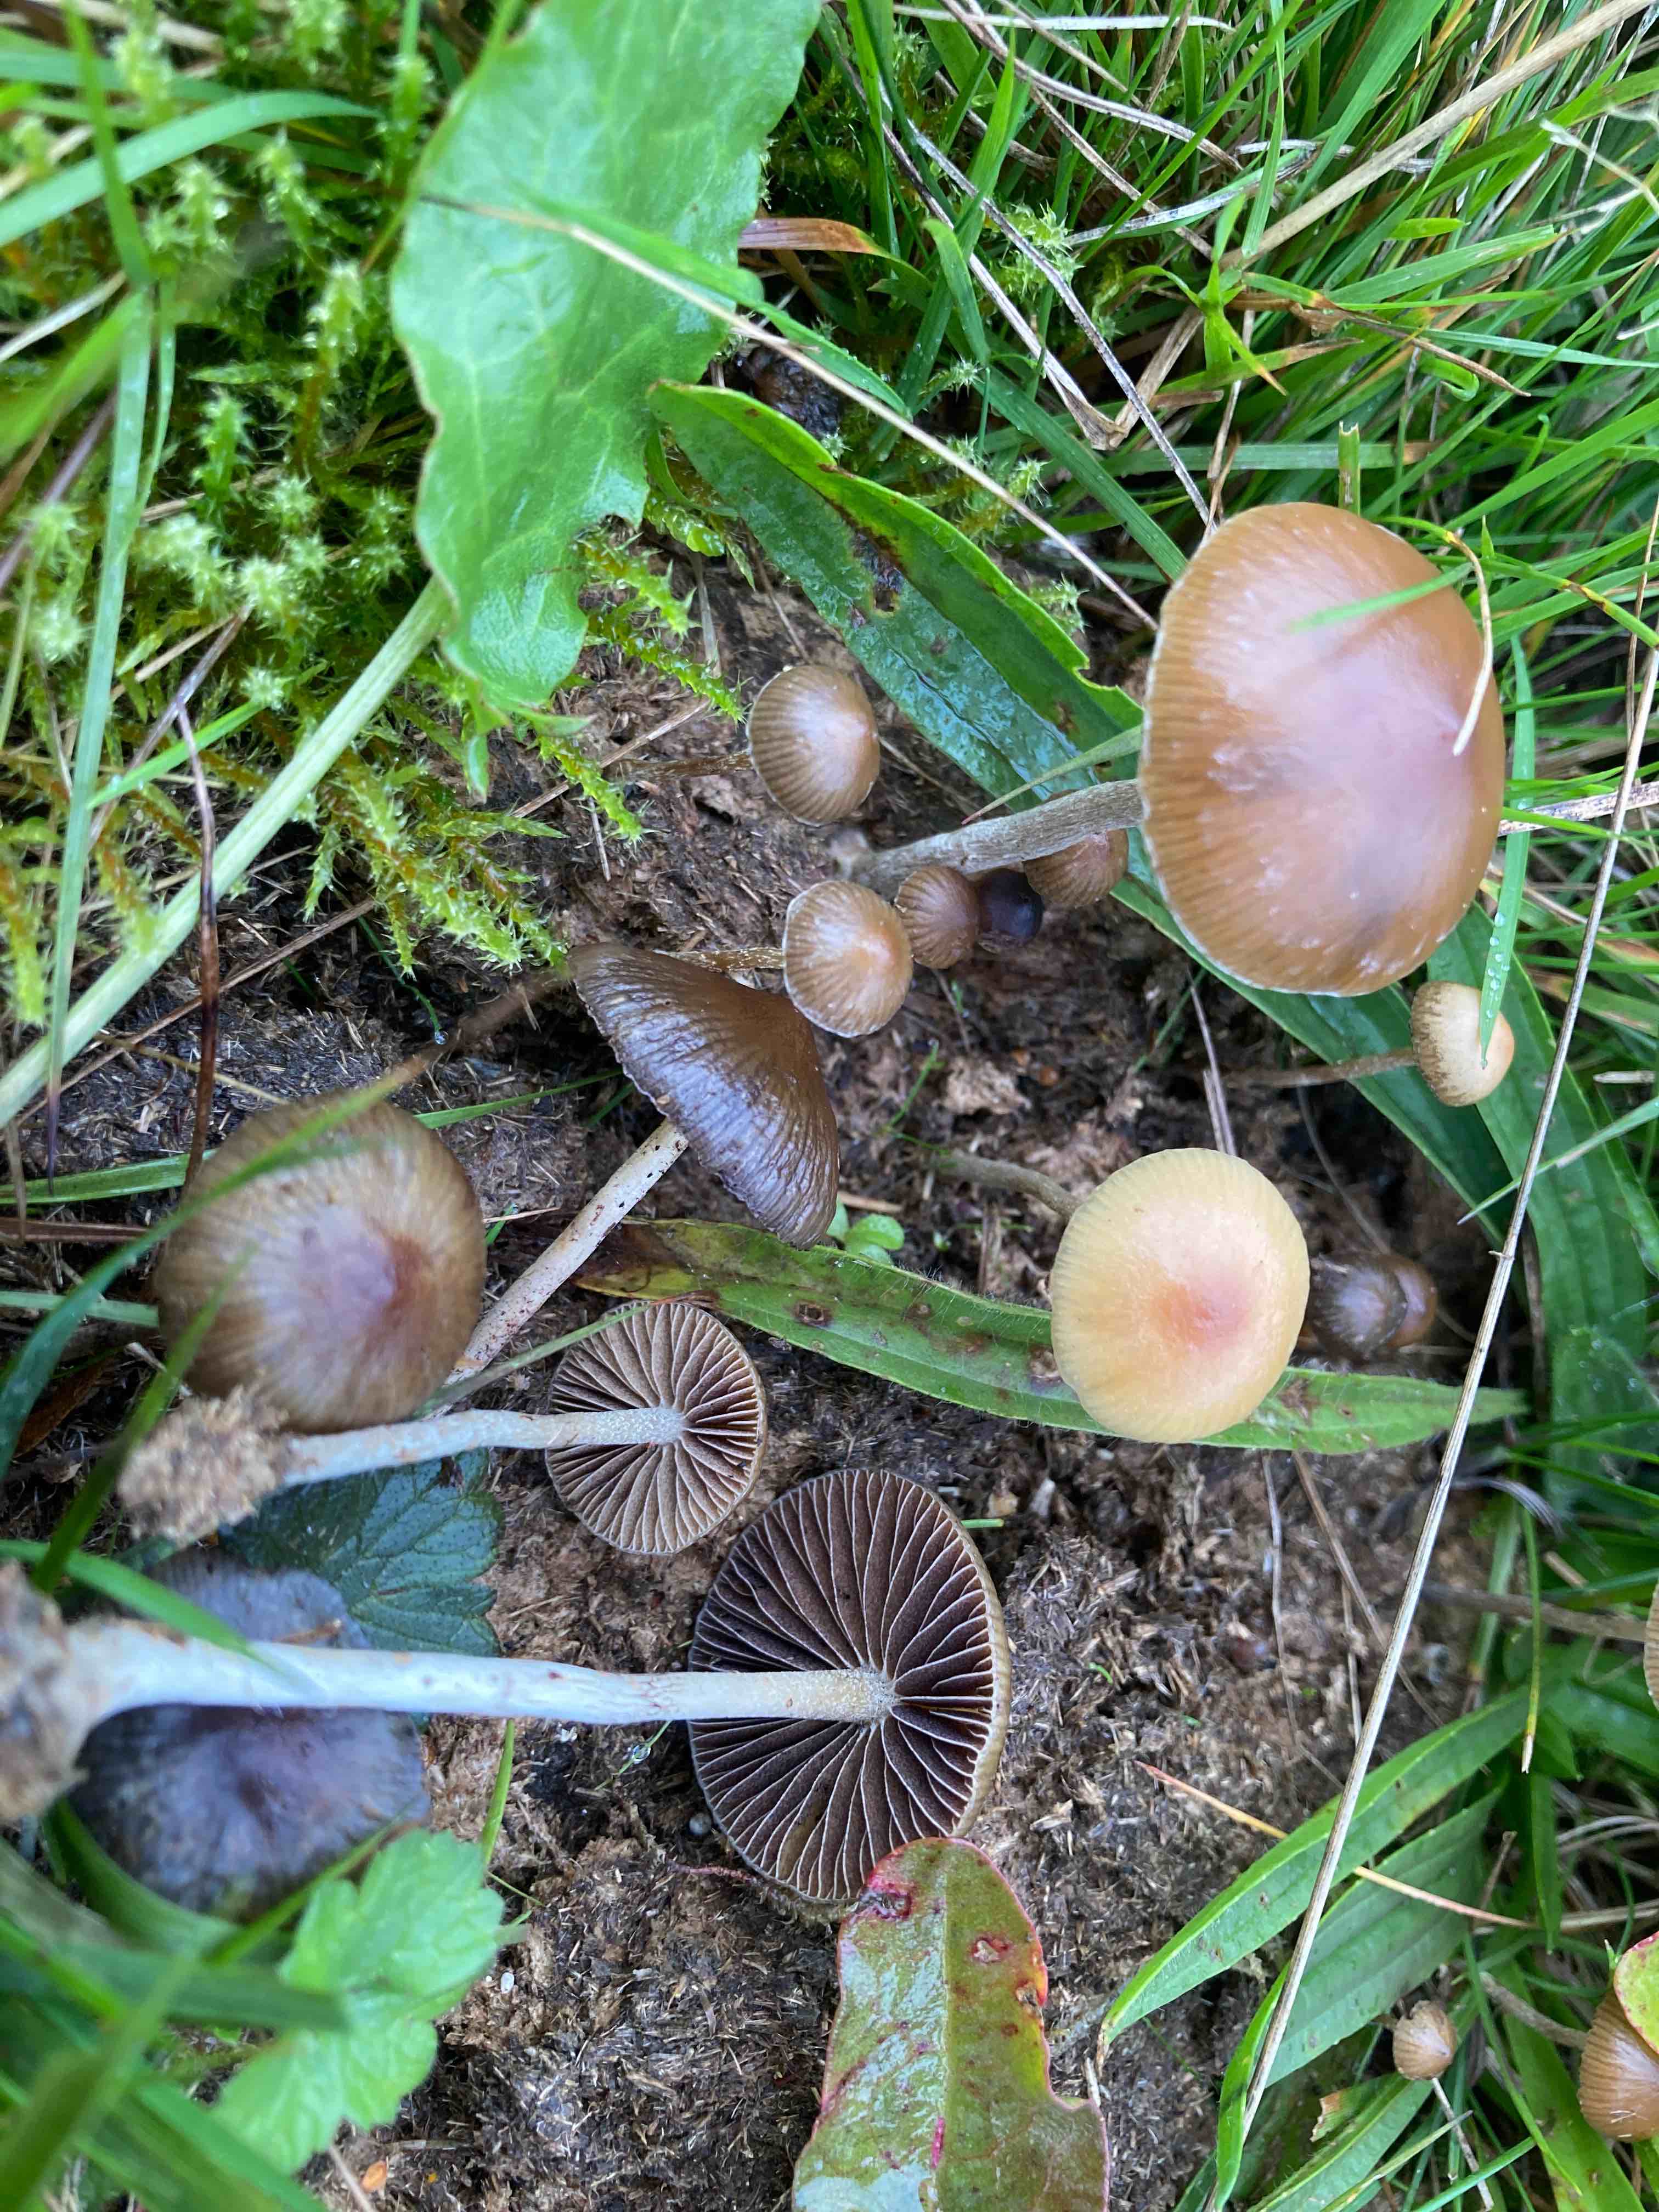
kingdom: Fungi
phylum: Basidiomycota
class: Agaricomycetes
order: Agaricales
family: Hymenogastraceae
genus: Psilocybe
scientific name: Psilocybe fimetaria
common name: prægtig nøgenhat
